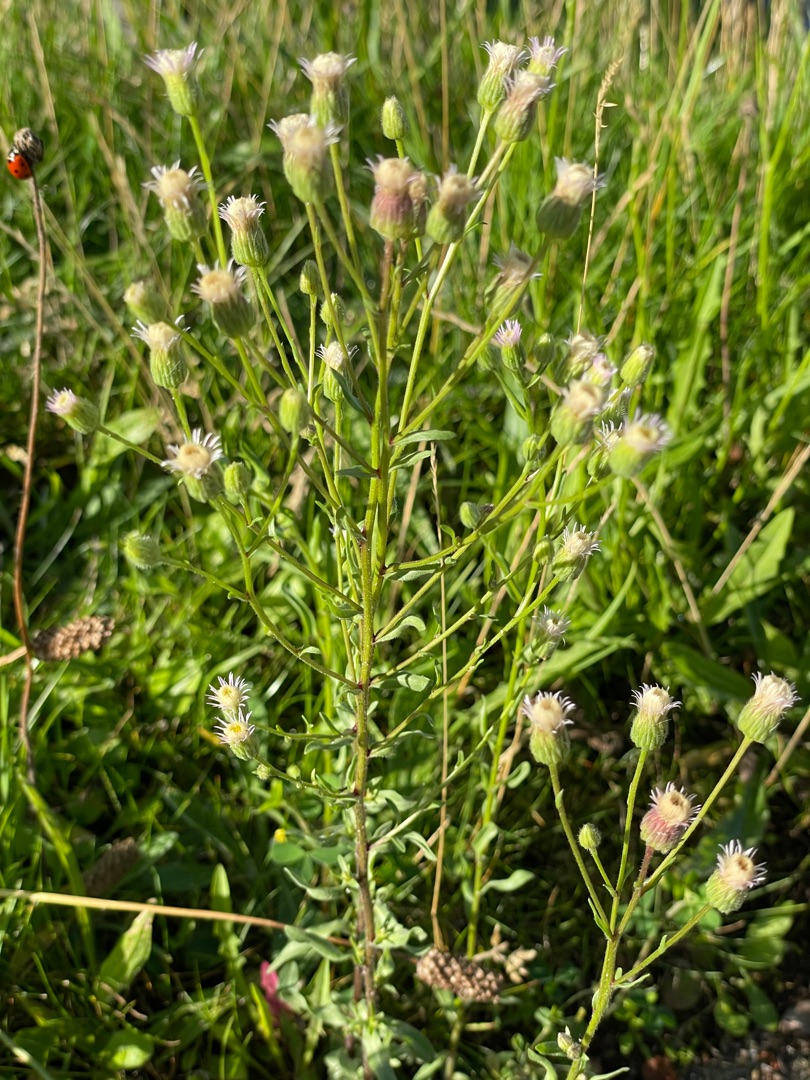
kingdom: Plantae
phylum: Tracheophyta
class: Magnoliopsida
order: Asterales
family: Asteraceae
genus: Erigeron
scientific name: Erigeron muralis
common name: Vreden bakkestjerne
